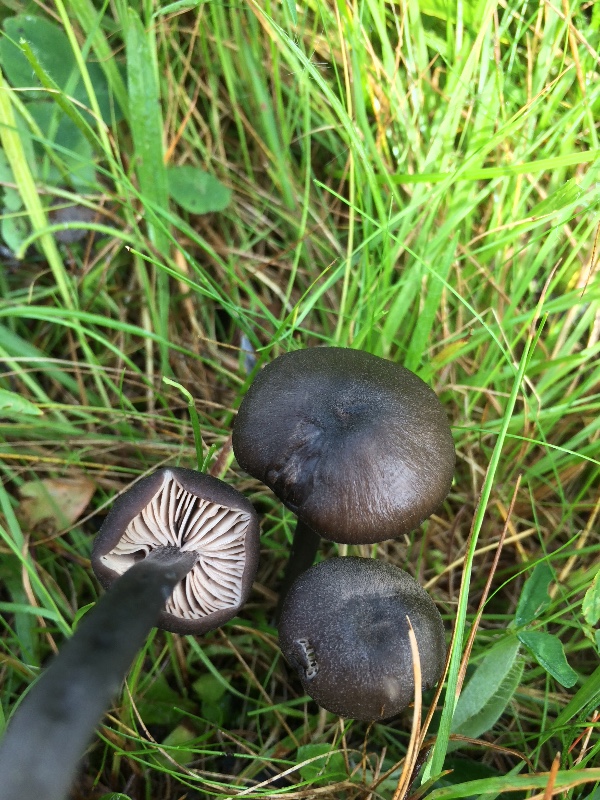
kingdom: Fungi
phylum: Basidiomycota
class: Agaricomycetes
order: Agaricales
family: Entolomataceae
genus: Entoloma
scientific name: Entoloma atrocoeruleum
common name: sortblå rødblad
